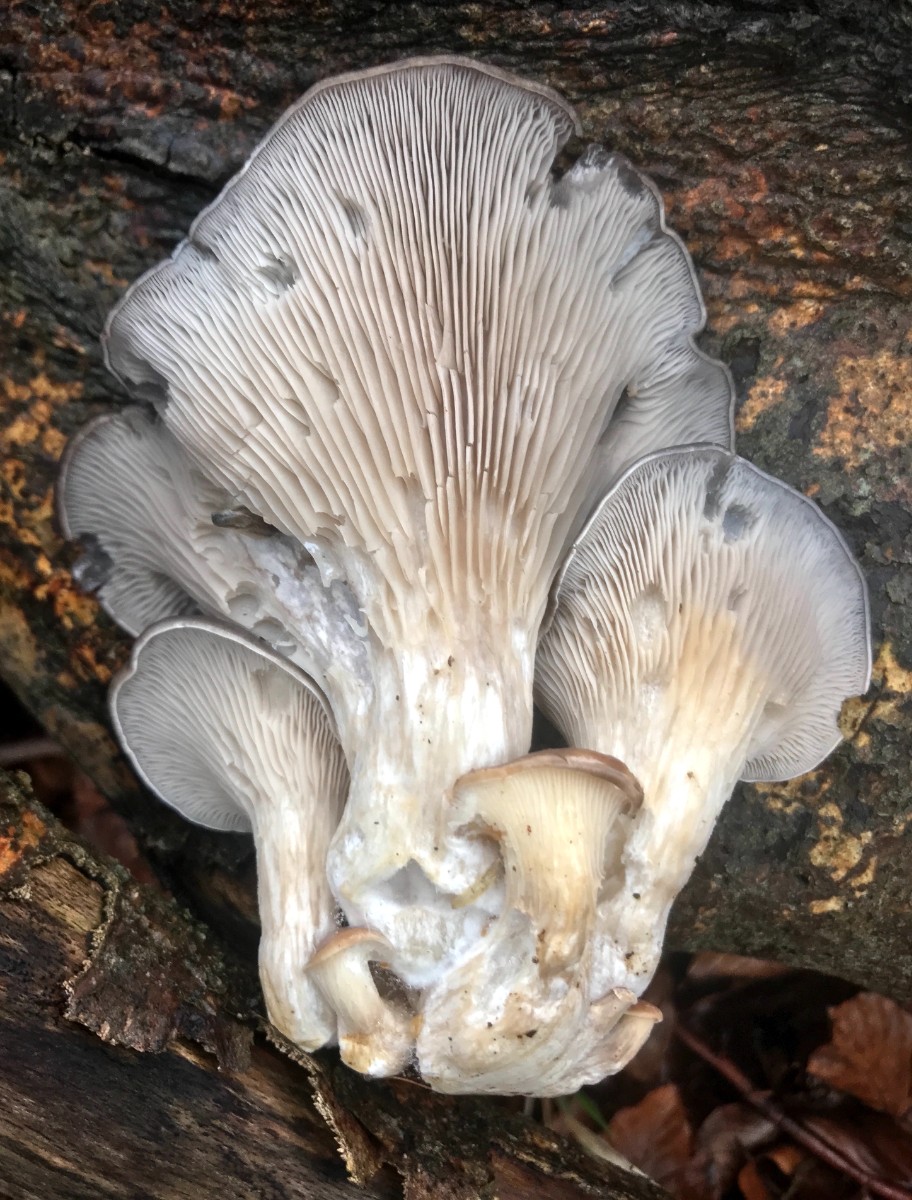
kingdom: Fungi
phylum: Basidiomycota
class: Agaricomycetes
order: Agaricales
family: Pleurotaceae
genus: Pleurotus
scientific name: Pleurotus ostreatus
